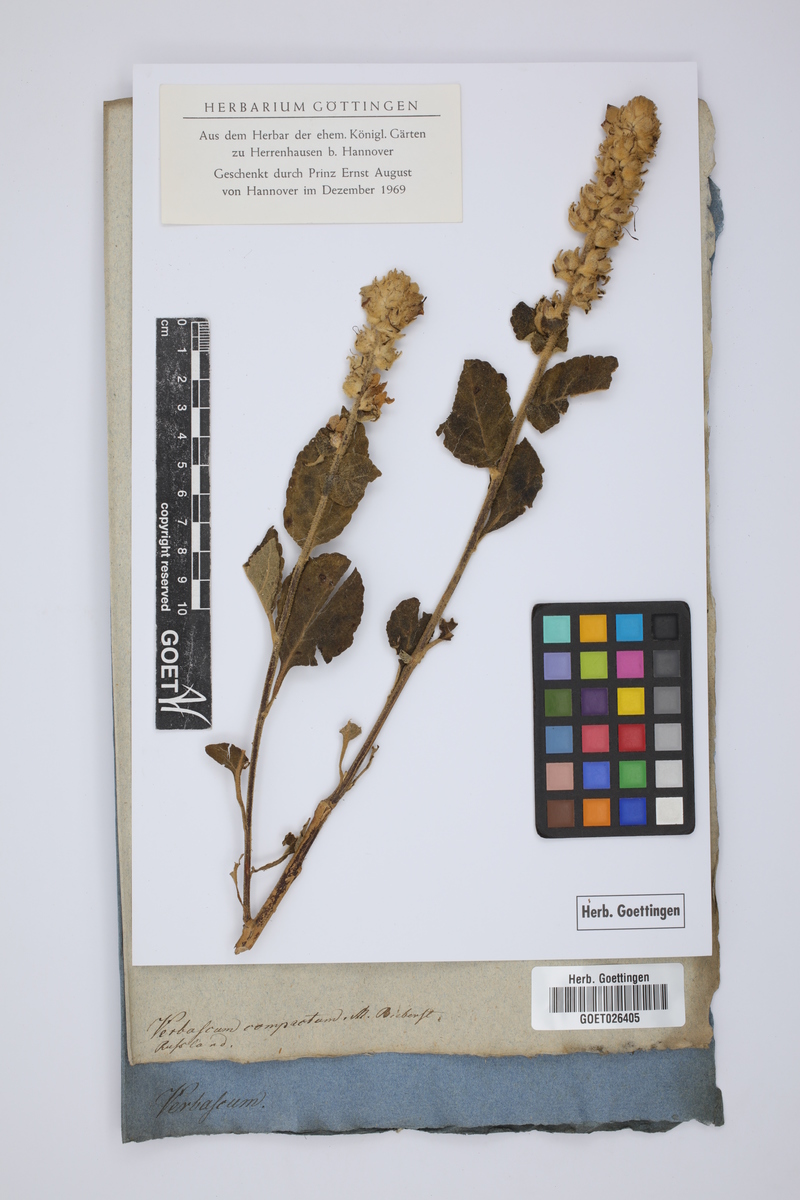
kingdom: Plantae
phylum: Tracheophyta
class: Magnoliopsida
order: Lamiales
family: Scrophulariaceae
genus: Verbascum
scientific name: Verbascum ovalifolium
